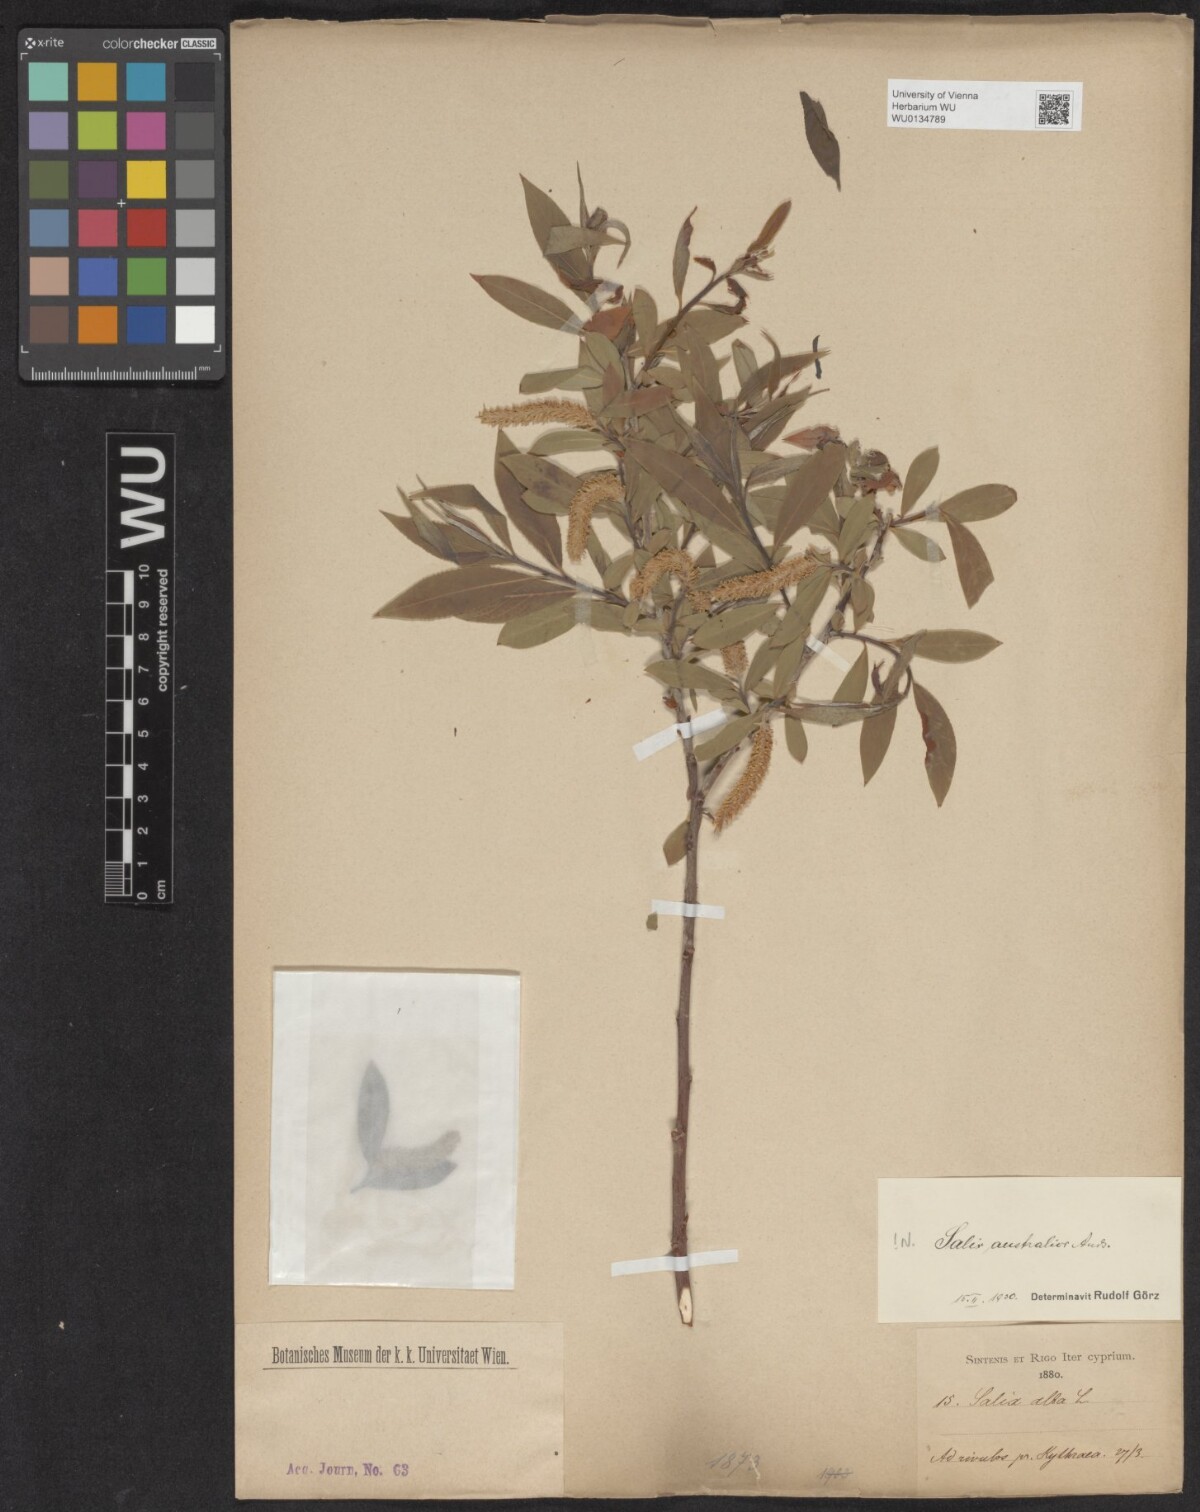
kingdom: Plantae
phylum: Tracheophyta
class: Magnoliopsida
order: Malpighiales
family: Salicaceae
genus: Salix
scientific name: Salix excelsa
